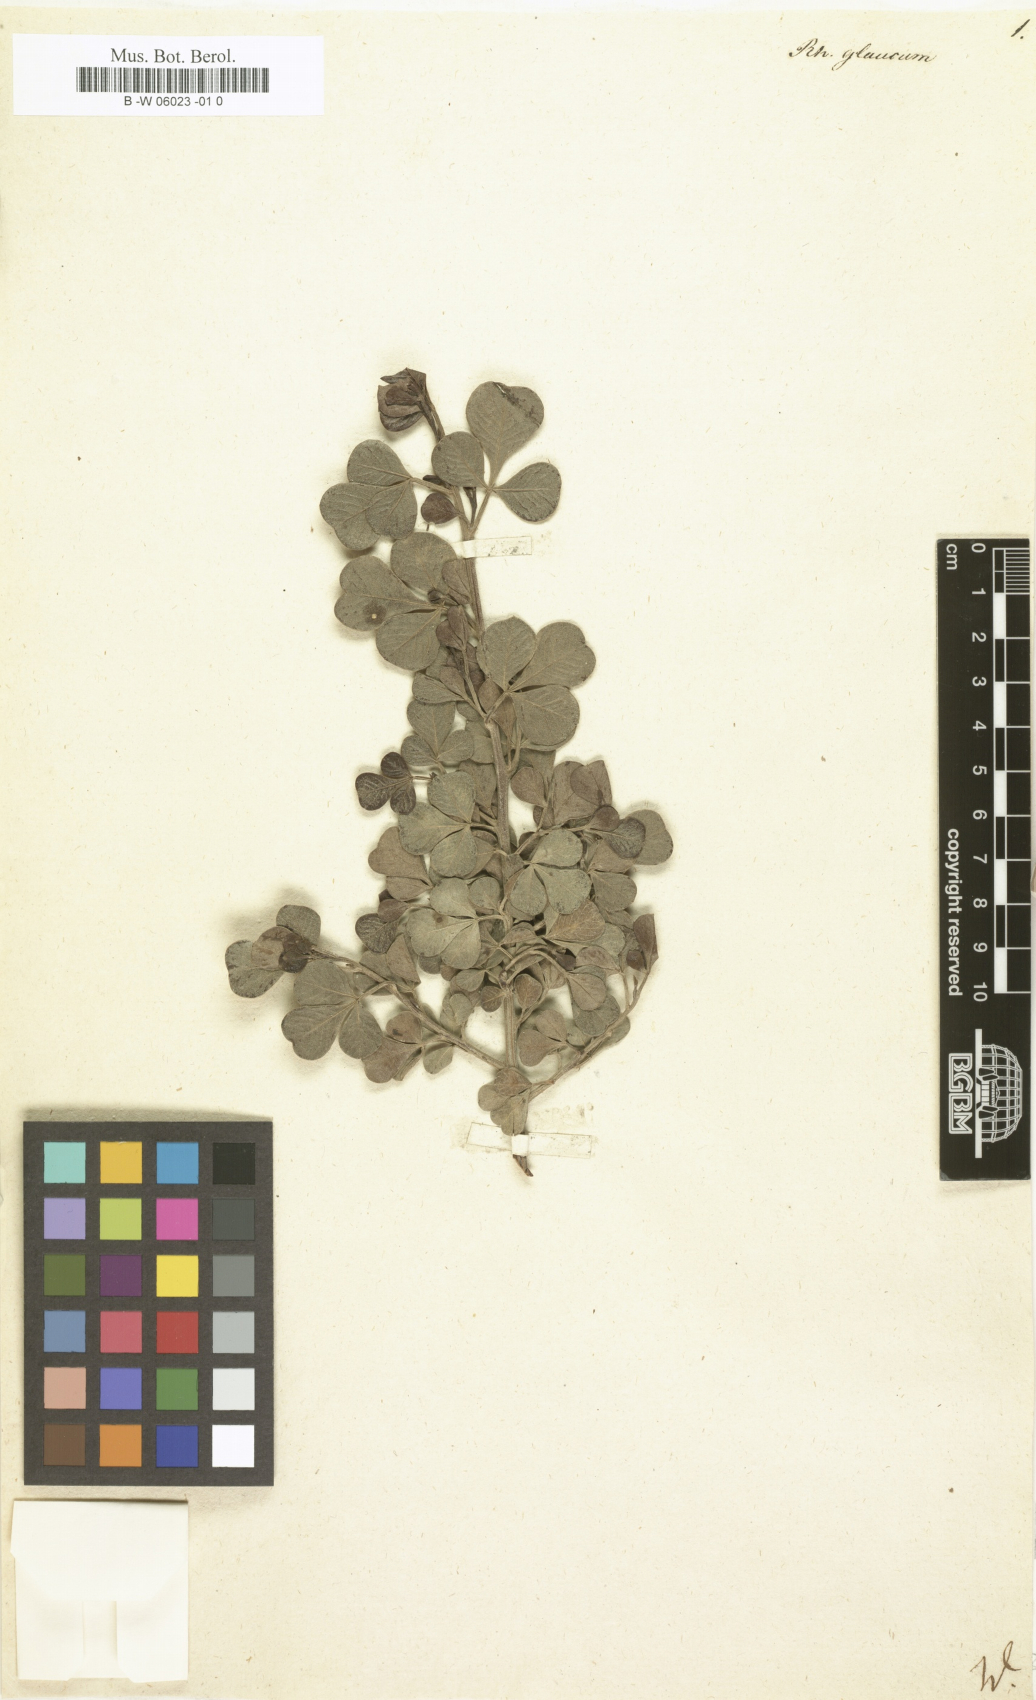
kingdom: Plantae
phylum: Tracheophyta
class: Magnoliopsida
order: Sapindales
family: Anacardiaceae
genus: Searsia
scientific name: Searsia
